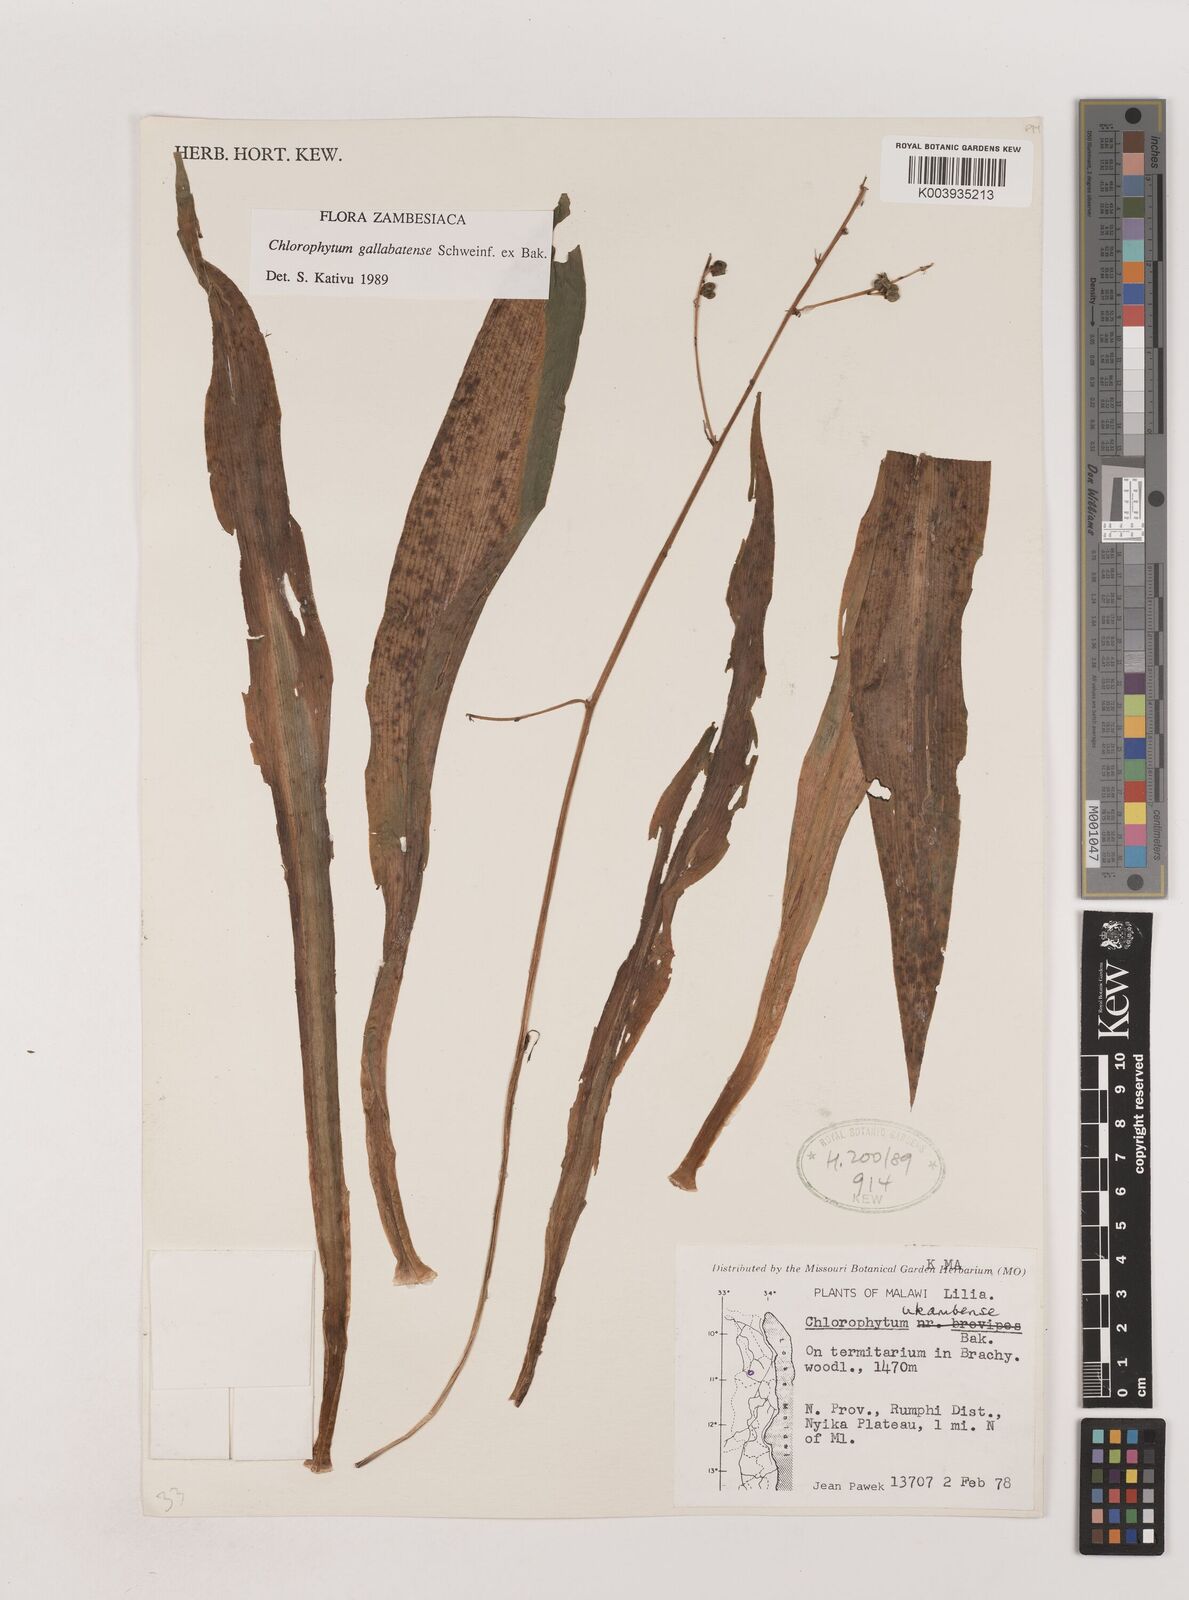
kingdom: Plantae
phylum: Tracheophyta
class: Liliopsida
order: Asparagales
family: Asparagaceae
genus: Chlorophytum
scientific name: Chlorophytum gallabatense
